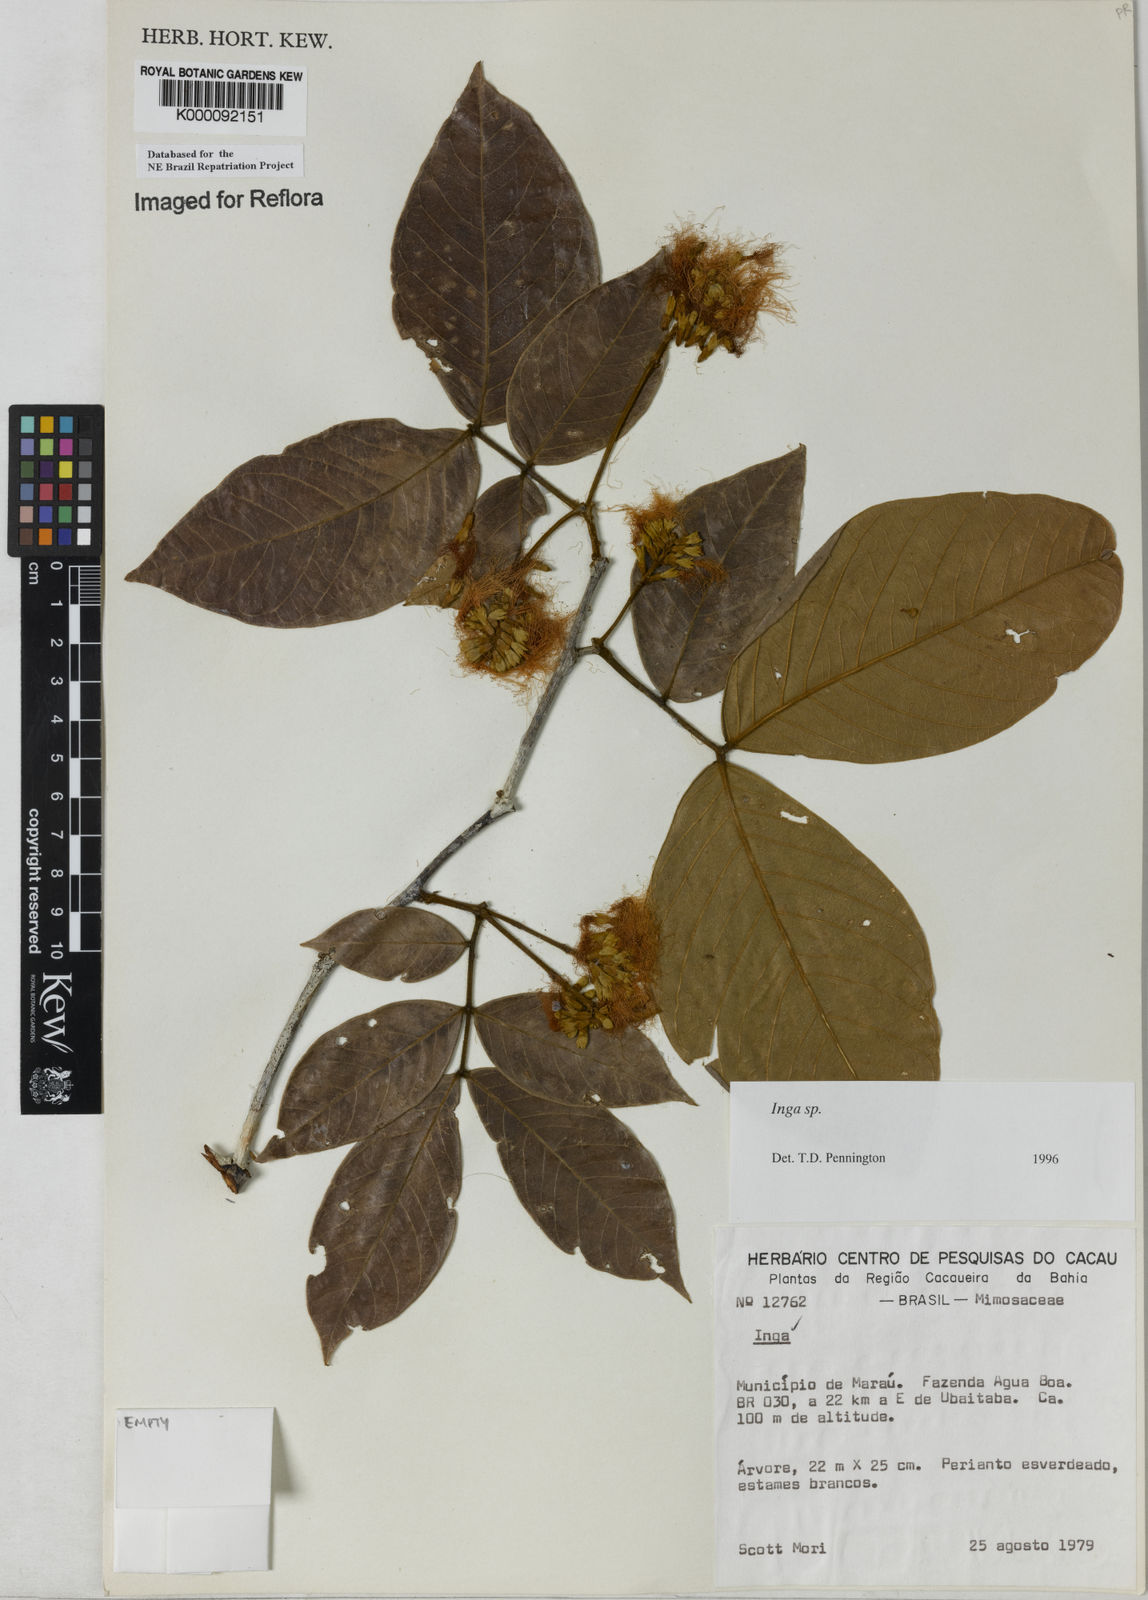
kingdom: Plantae
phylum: Tracheophyta
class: Magnoliopsida
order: Fabales
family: Fabaceae
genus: Inga
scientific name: Inga
